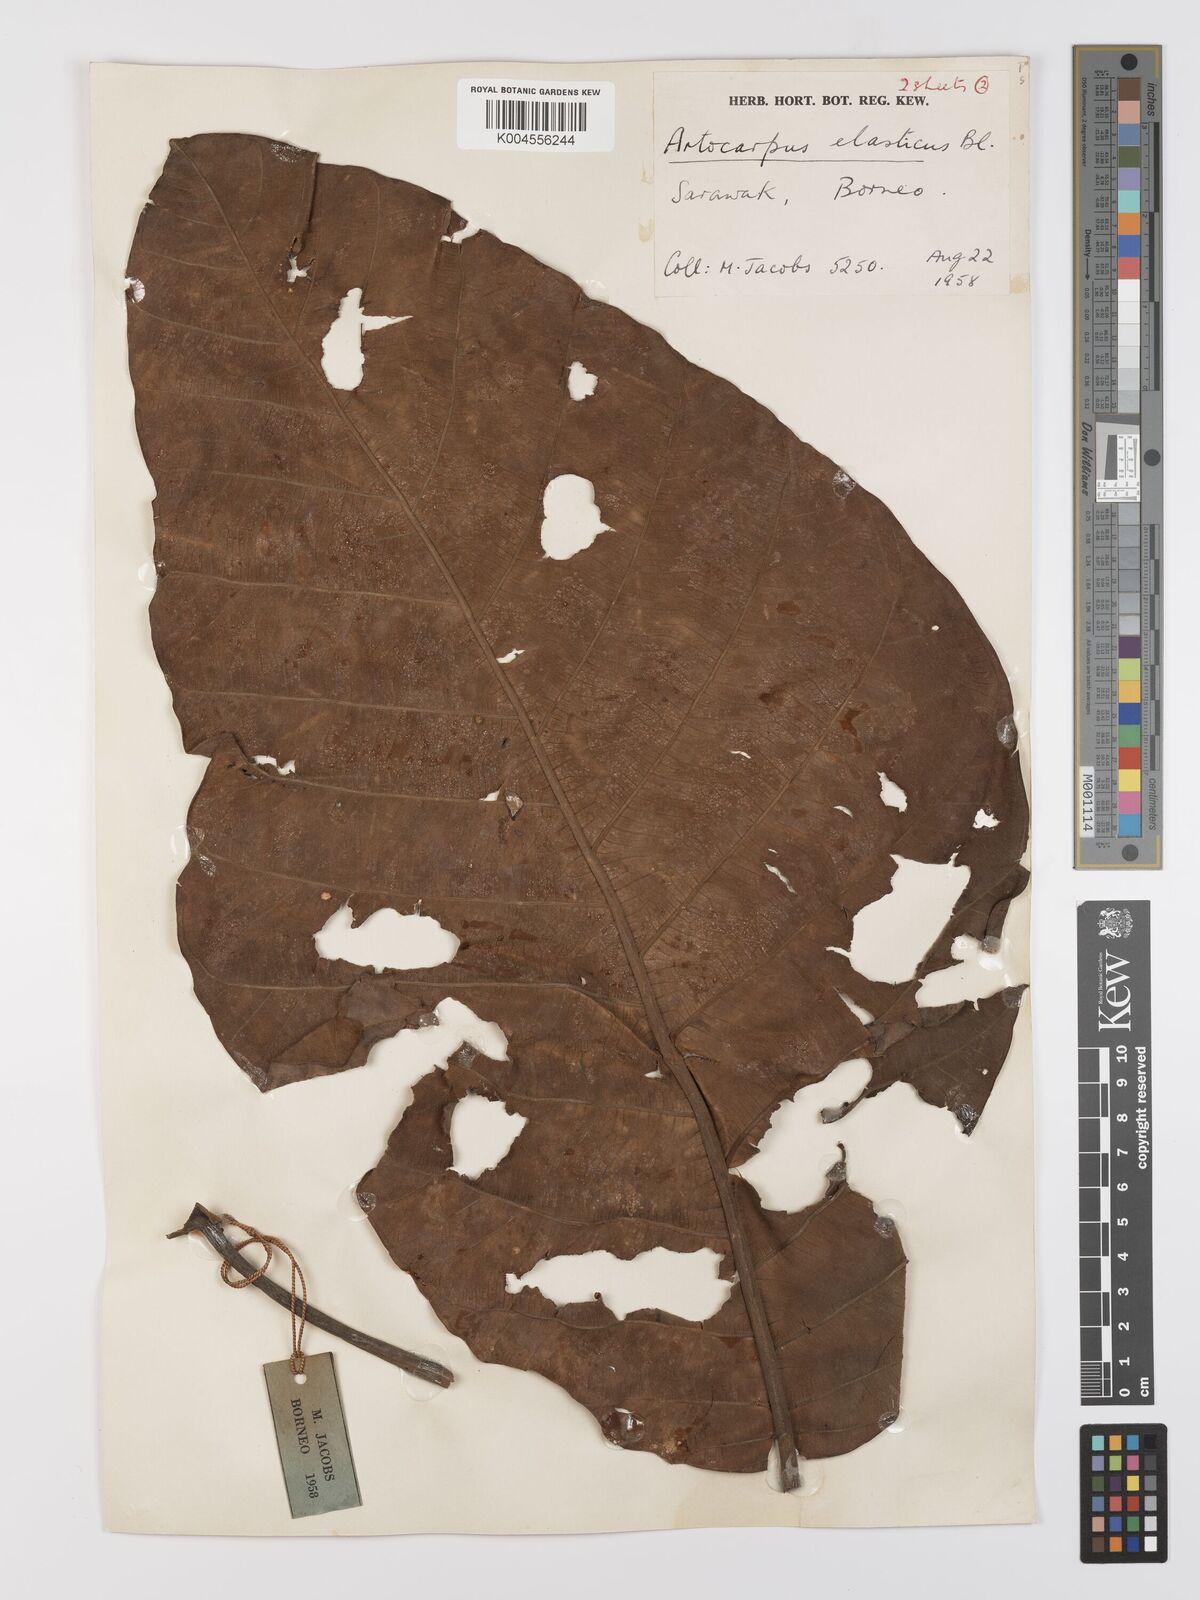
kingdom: Plantae
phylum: Tracheophyta
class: Magnoliopsida
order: Rosales
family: Moraceae
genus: Artocarpus
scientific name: Artocarpus elasticus
